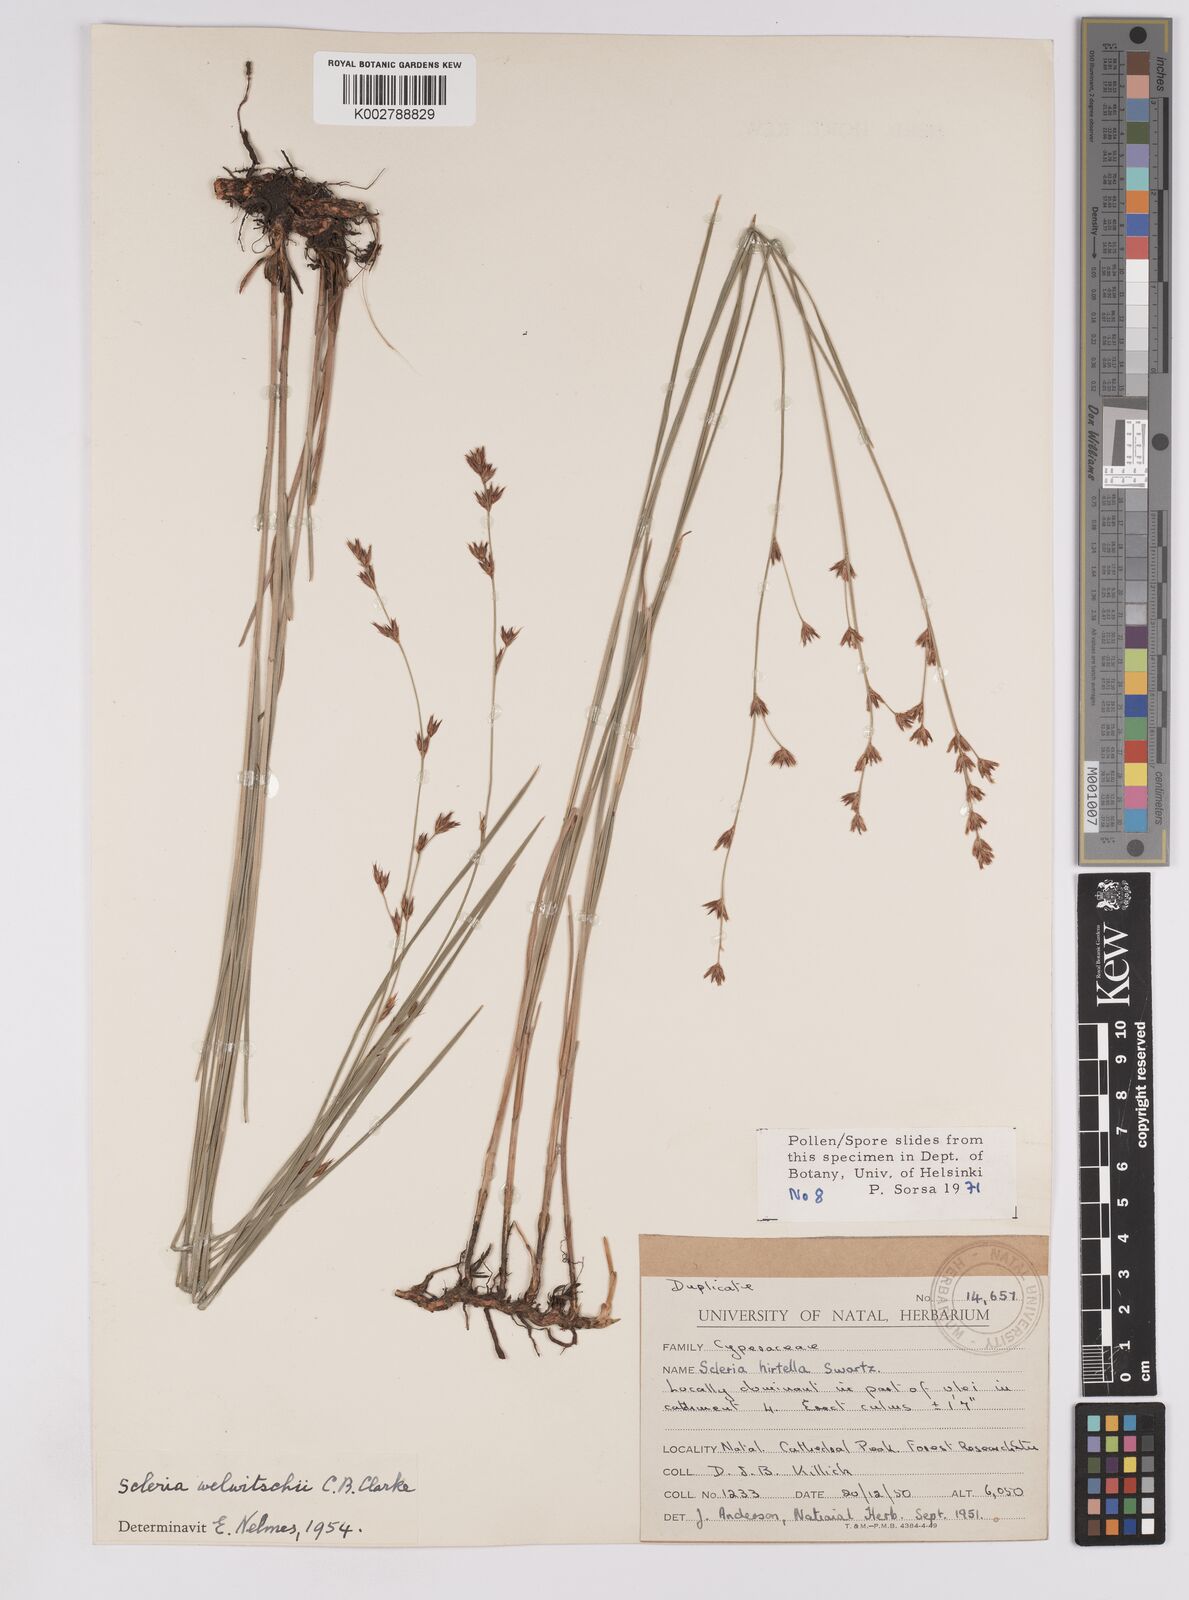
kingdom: Plantae
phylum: Tracheophyta
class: Liliopsida
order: Poales
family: Cyperaceae
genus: Scleria
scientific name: Scleria welwitschii
